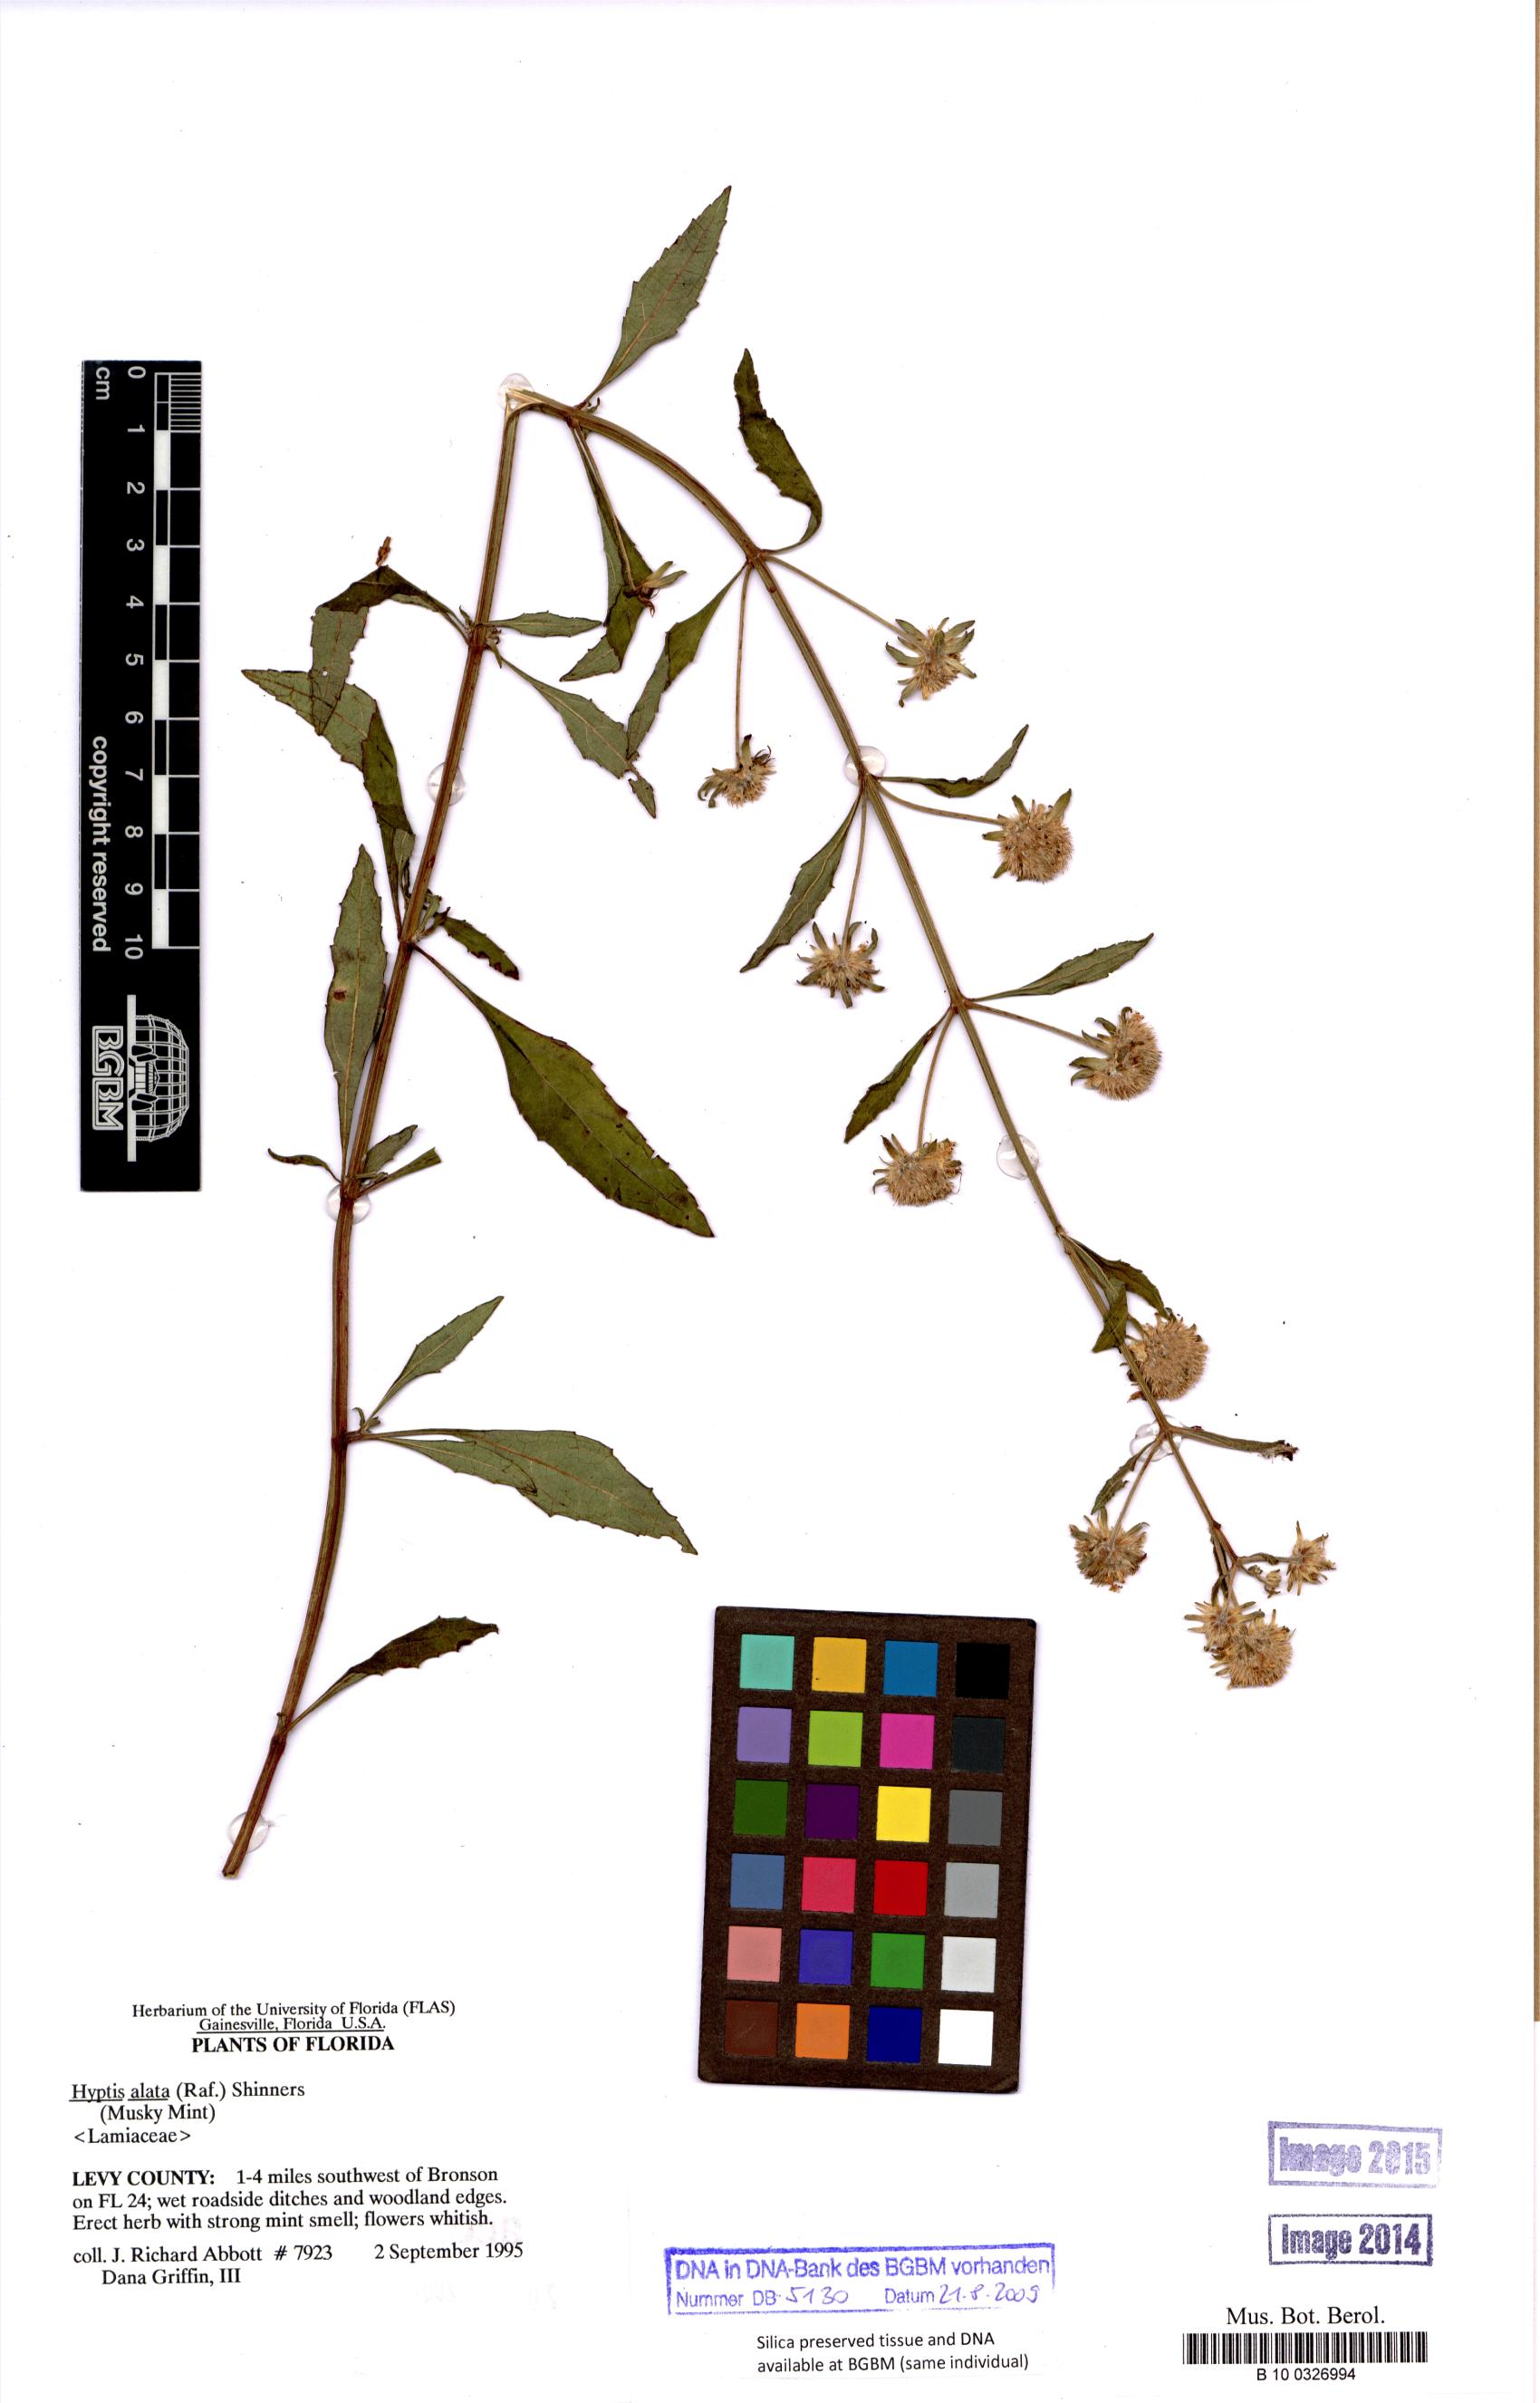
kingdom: Plantae
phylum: Tracheophyta
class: Magnoliopsida
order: Lamiales
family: Lamiaceae
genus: Hyptis
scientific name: Hyptis alata
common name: Cluster bush-mint
